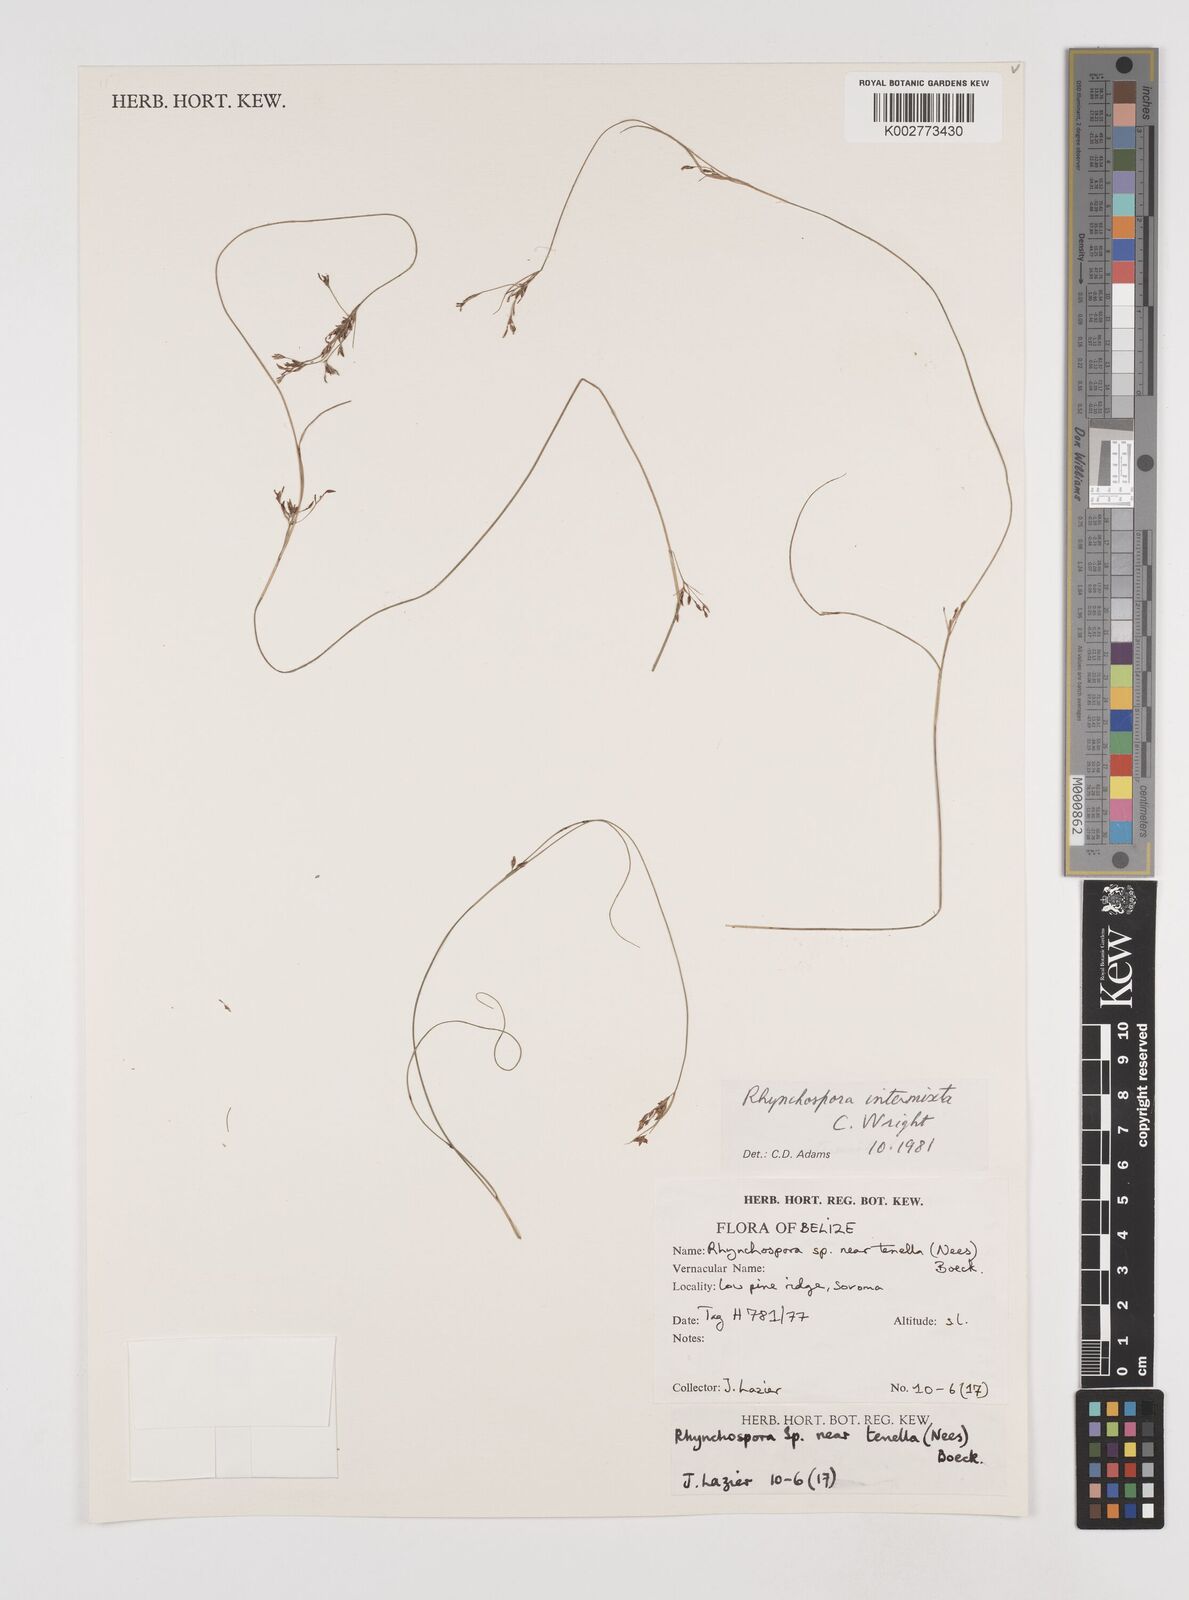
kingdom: Plantae
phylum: Tracheophyta
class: Liliopsida
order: Poales
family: Cyperaceae
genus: Rhynchospora
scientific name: Rhynchospora intermixta
